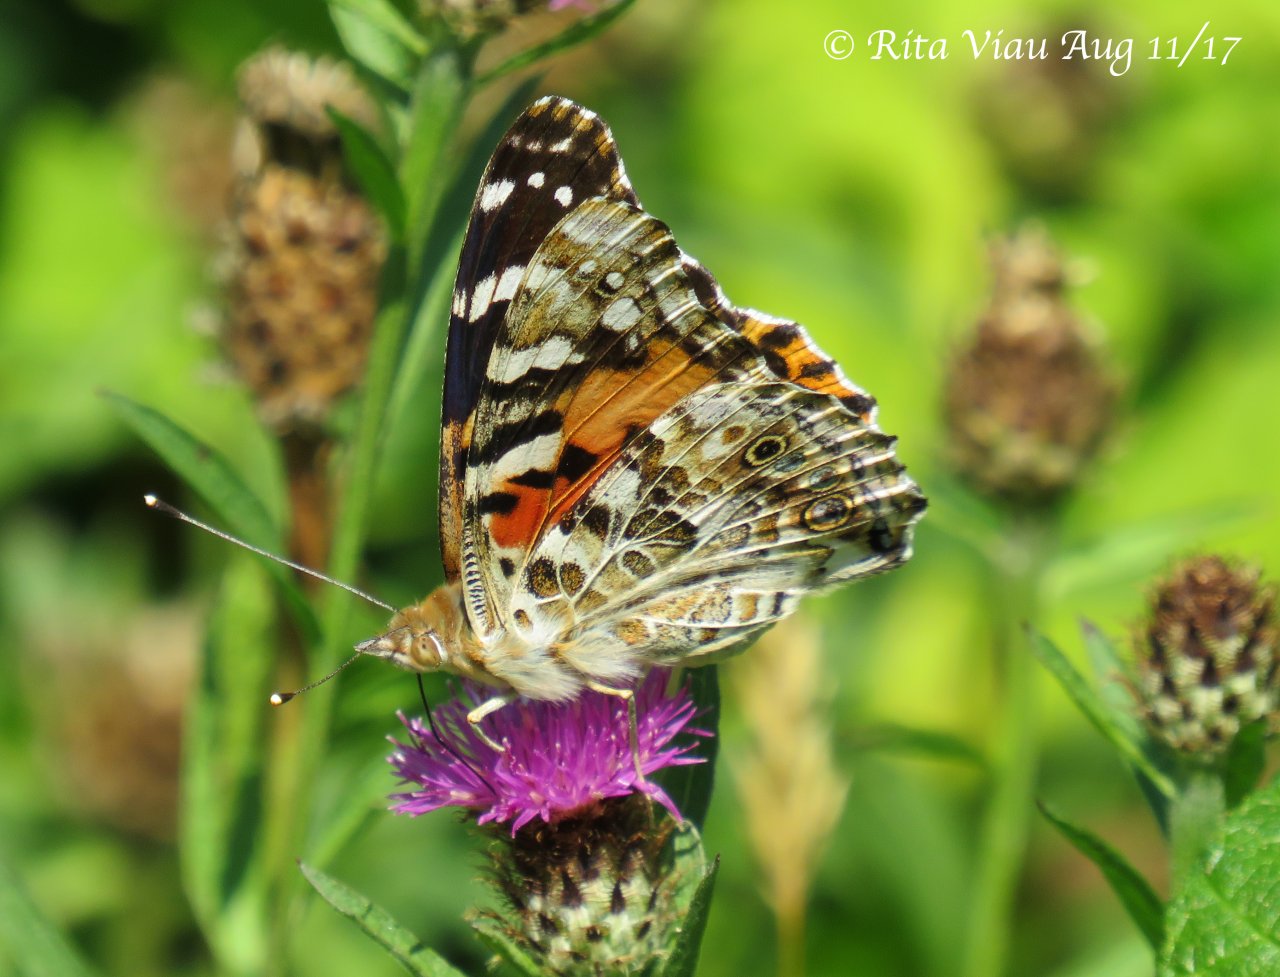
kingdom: Animalia
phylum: Arthropoda
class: Insecta
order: Lepidoptera
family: Nymphalidae
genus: Vanessa
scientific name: Vanessa cardui
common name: Painted Lady
